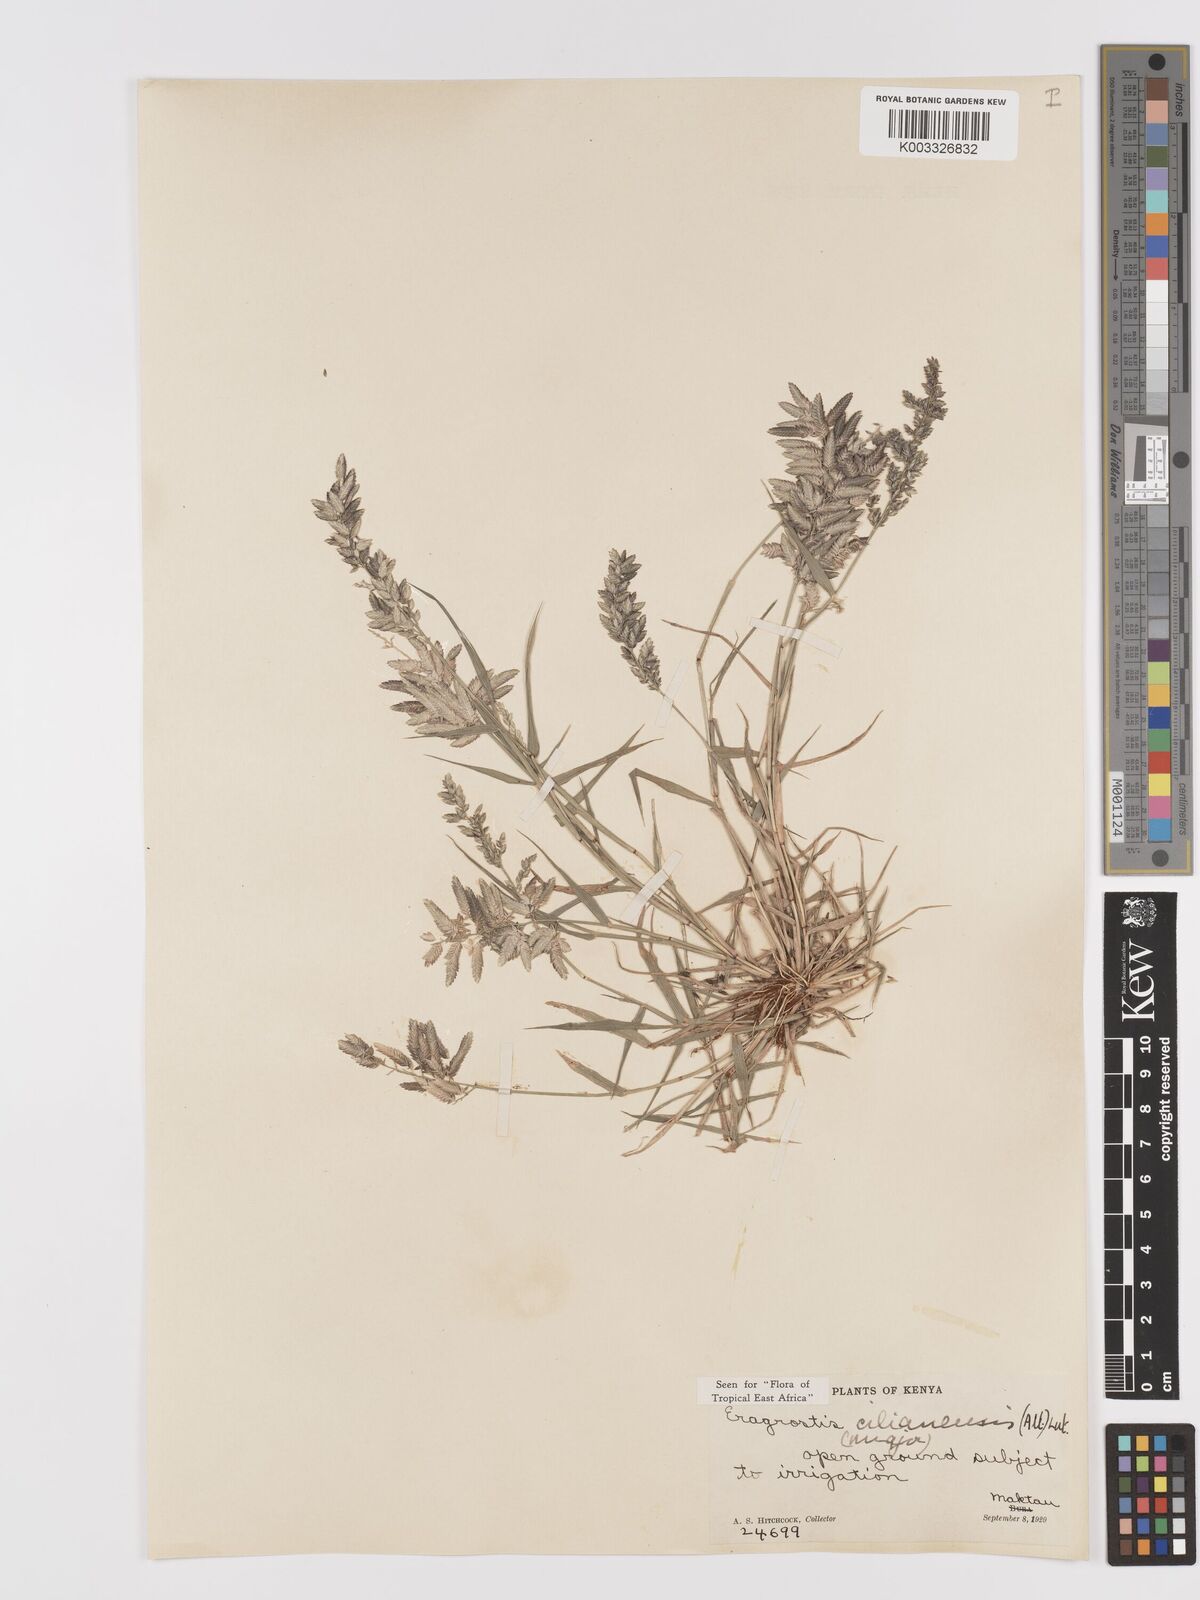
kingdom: Plantae
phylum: Tracheophyta
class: Liliopsida
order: Poales
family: Poaceae
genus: Eragrostis
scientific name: Eragrostis cilianensis
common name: Stinkgrass
